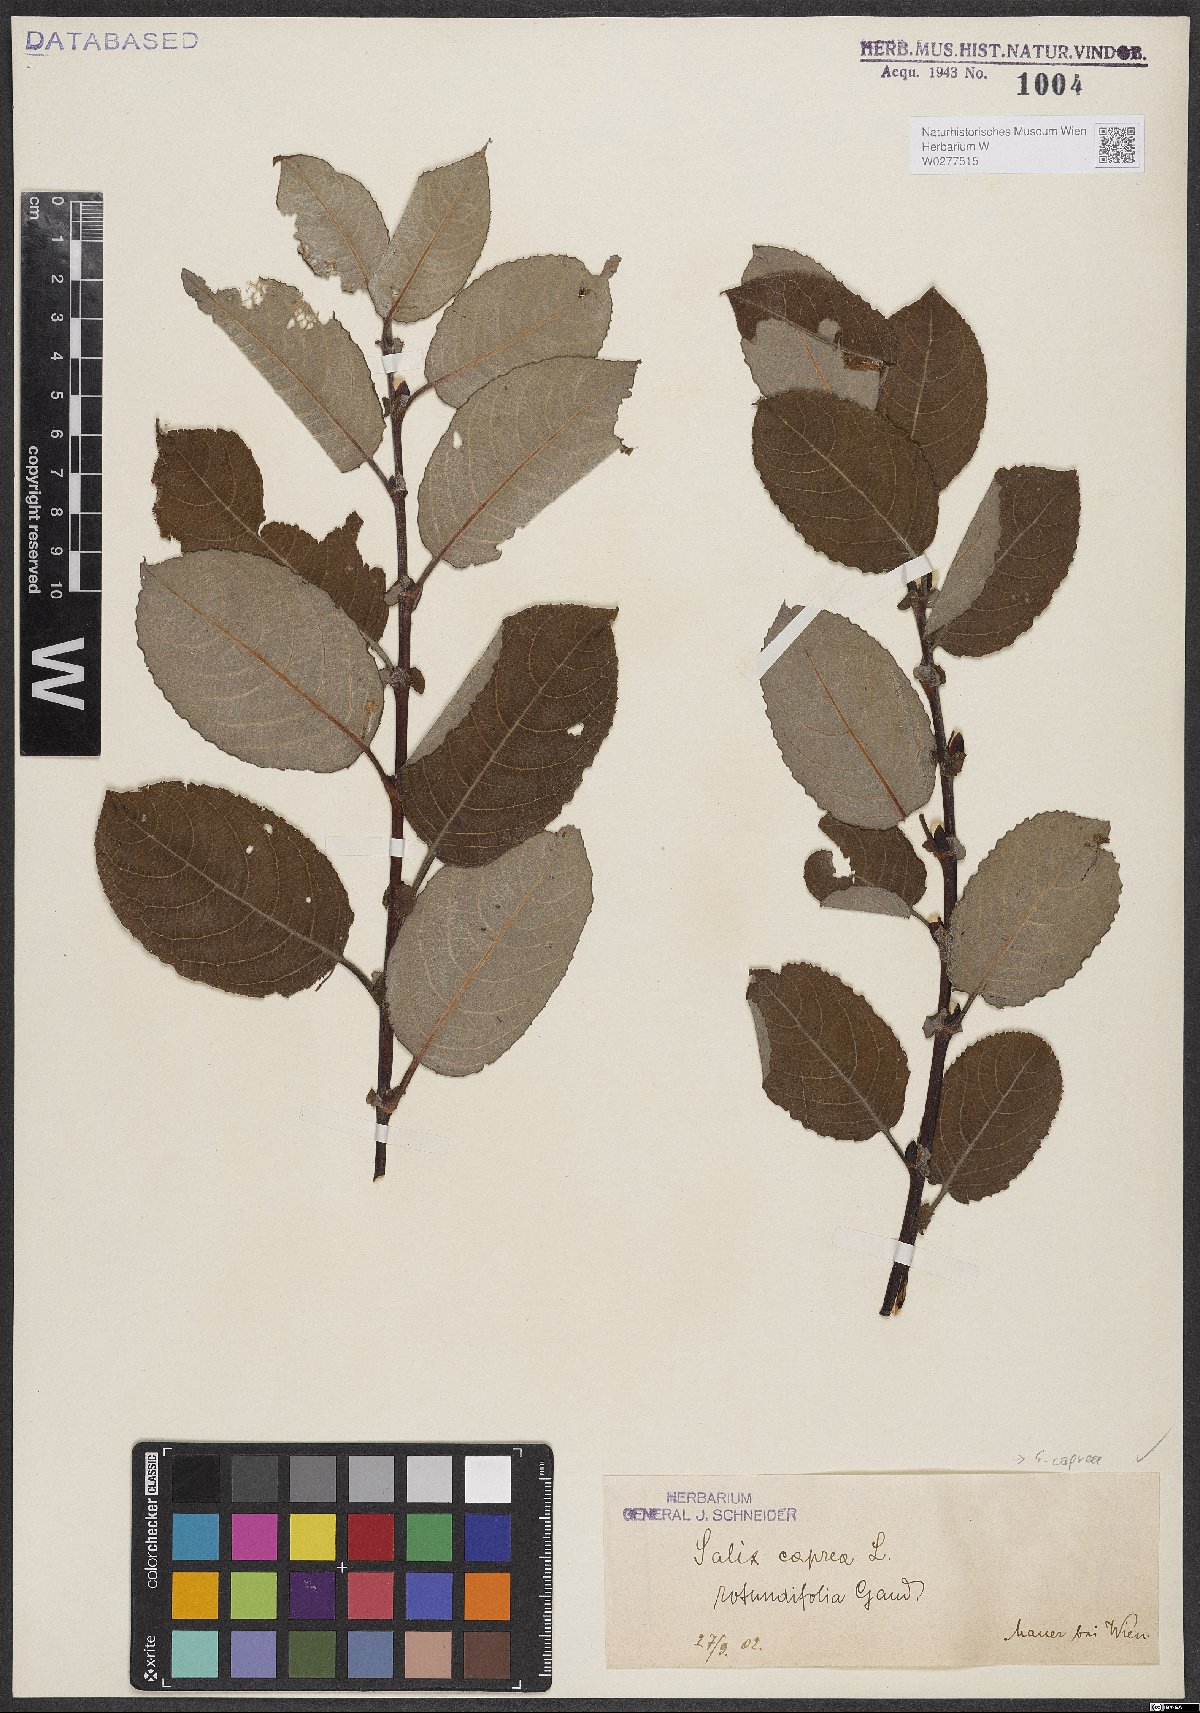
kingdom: Plantae
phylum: Tracheophyta
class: Magnoliopsida
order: Malpighiales
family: Salicaceae
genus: Salix
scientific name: Salix caprea
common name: Goat willow
